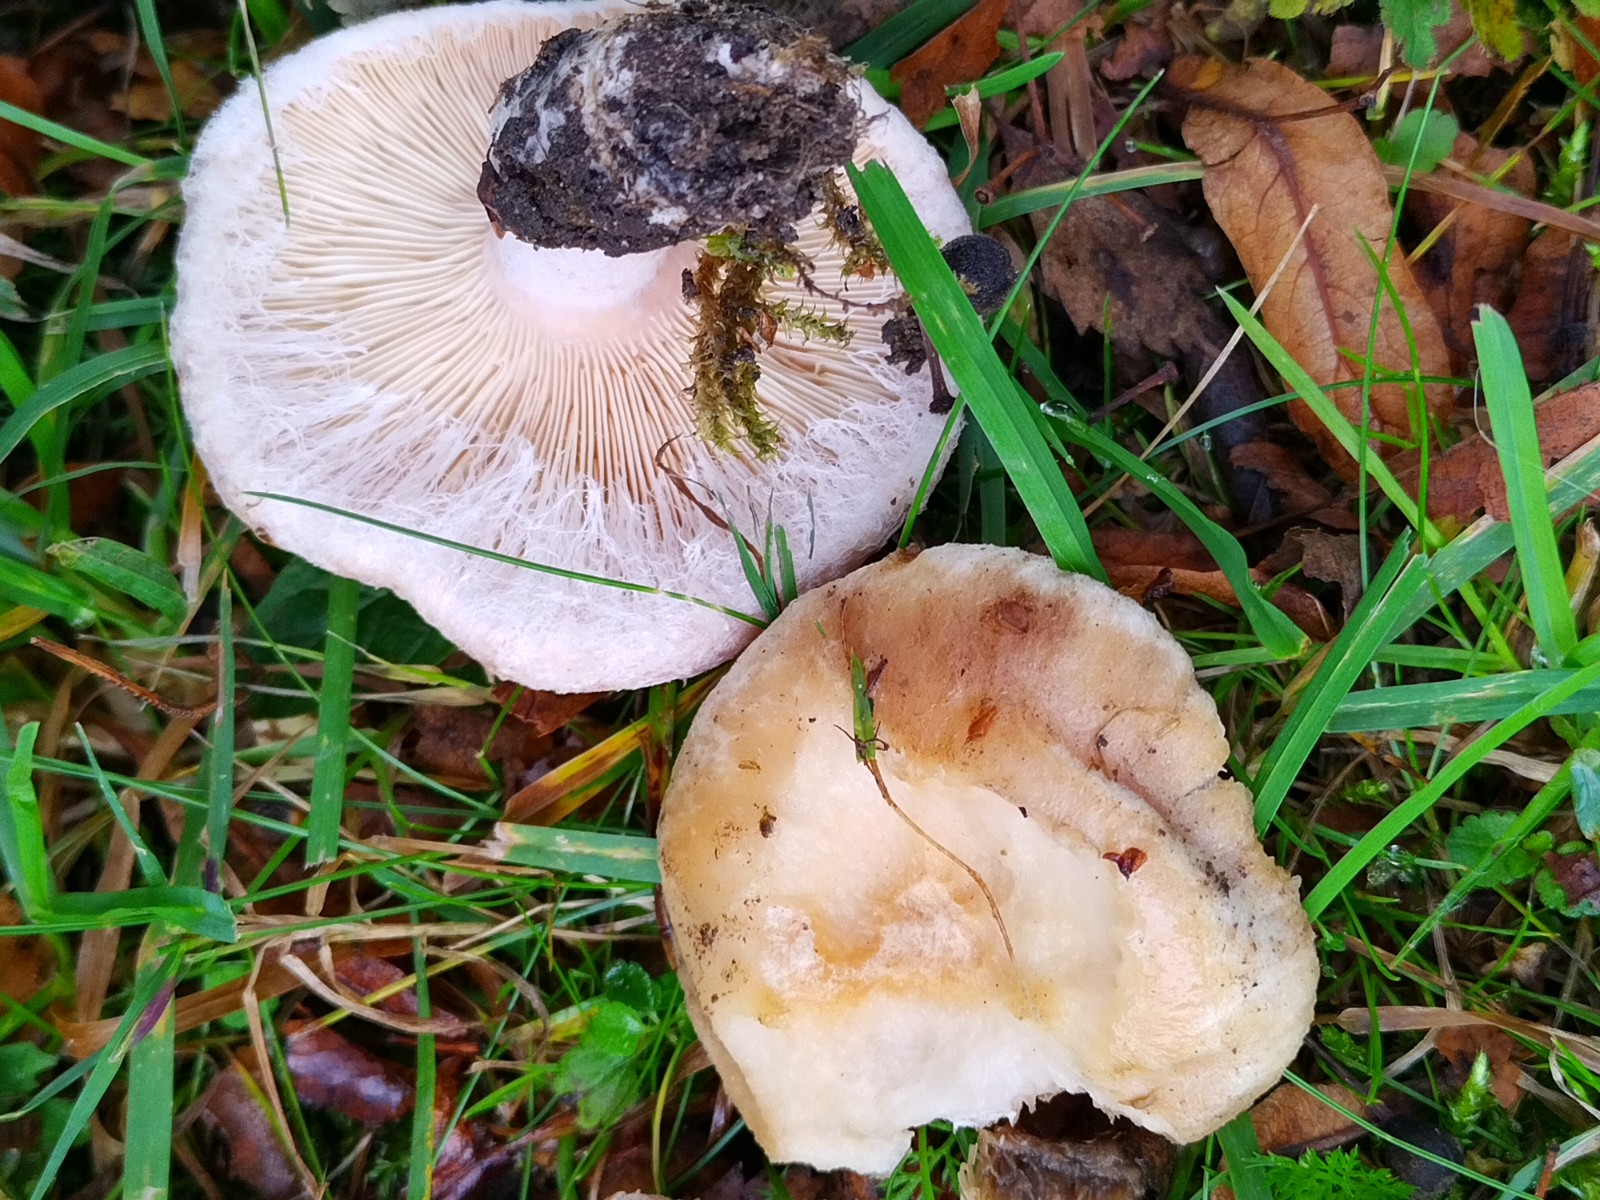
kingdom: Fungi
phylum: Basidiomycota
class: Agaricomycetes
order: Russulales
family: Russulaceae
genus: Lactarius
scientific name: Lactarius pubescens
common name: dunet mælkehat
